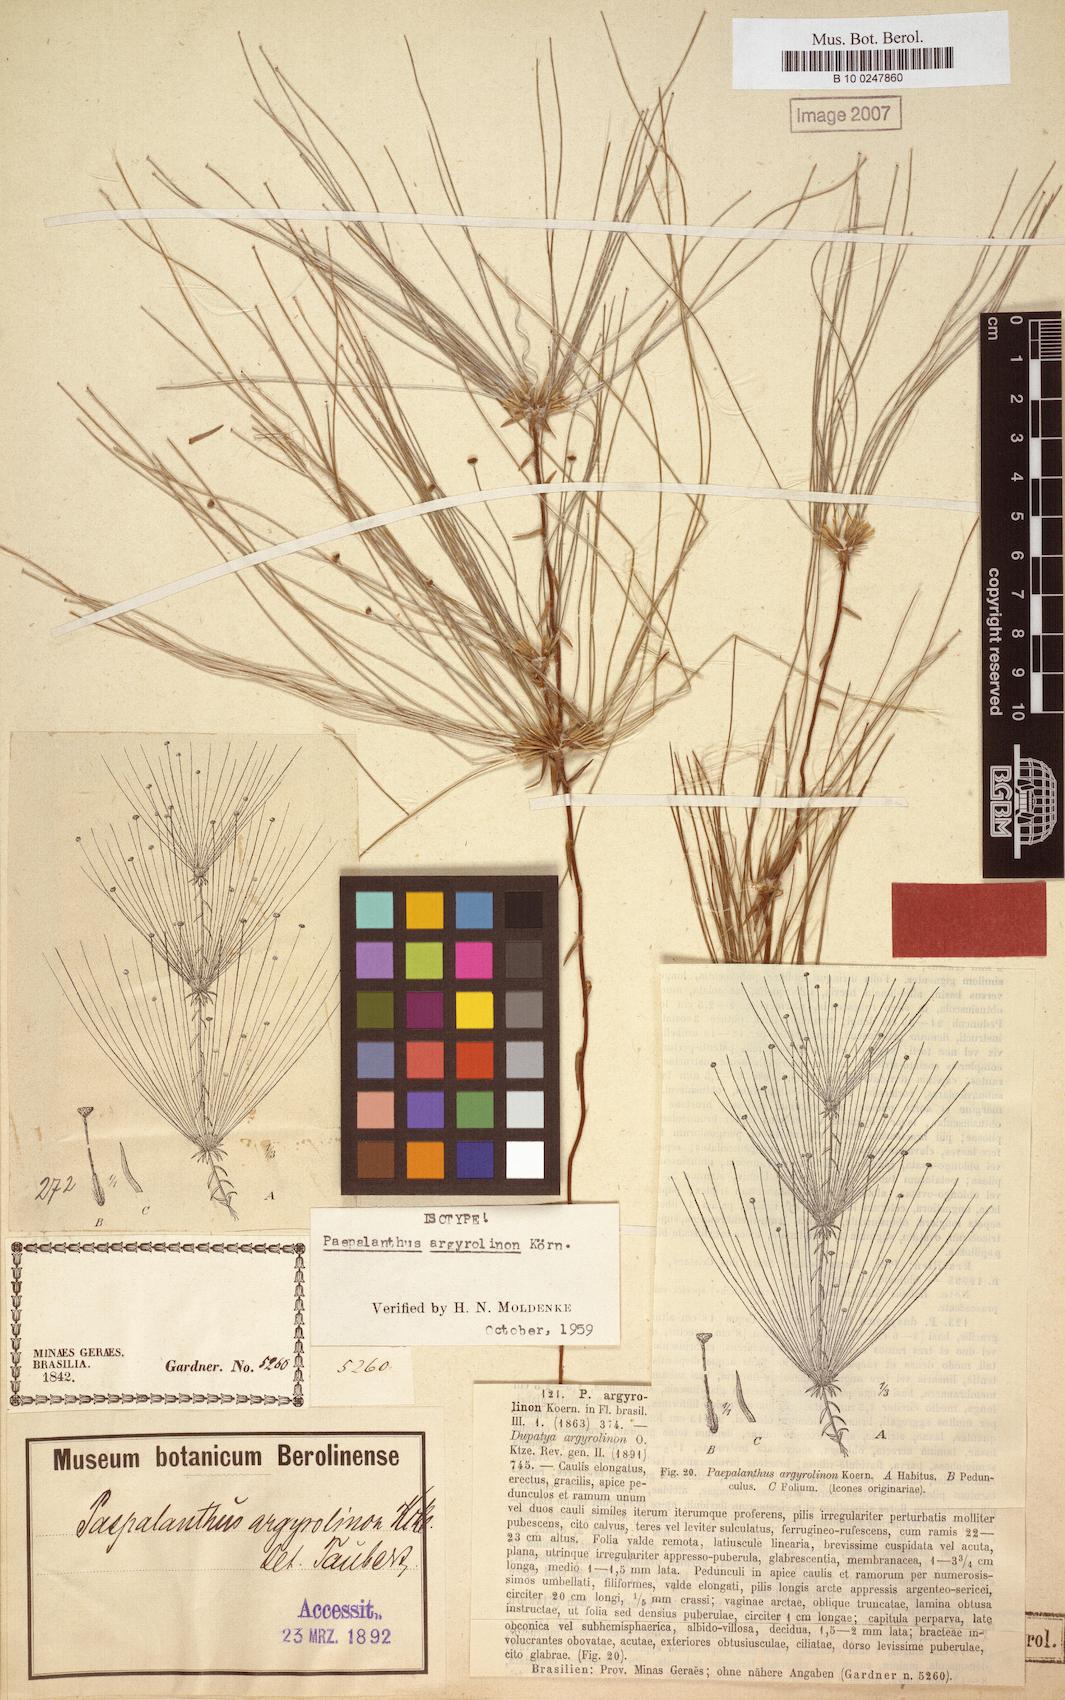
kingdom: Plantae
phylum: Tracheophyta
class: Liliopsida
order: Poales
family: Eriocaulaceae
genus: Paepalanthus
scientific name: Paepalanthus argyrolinon
